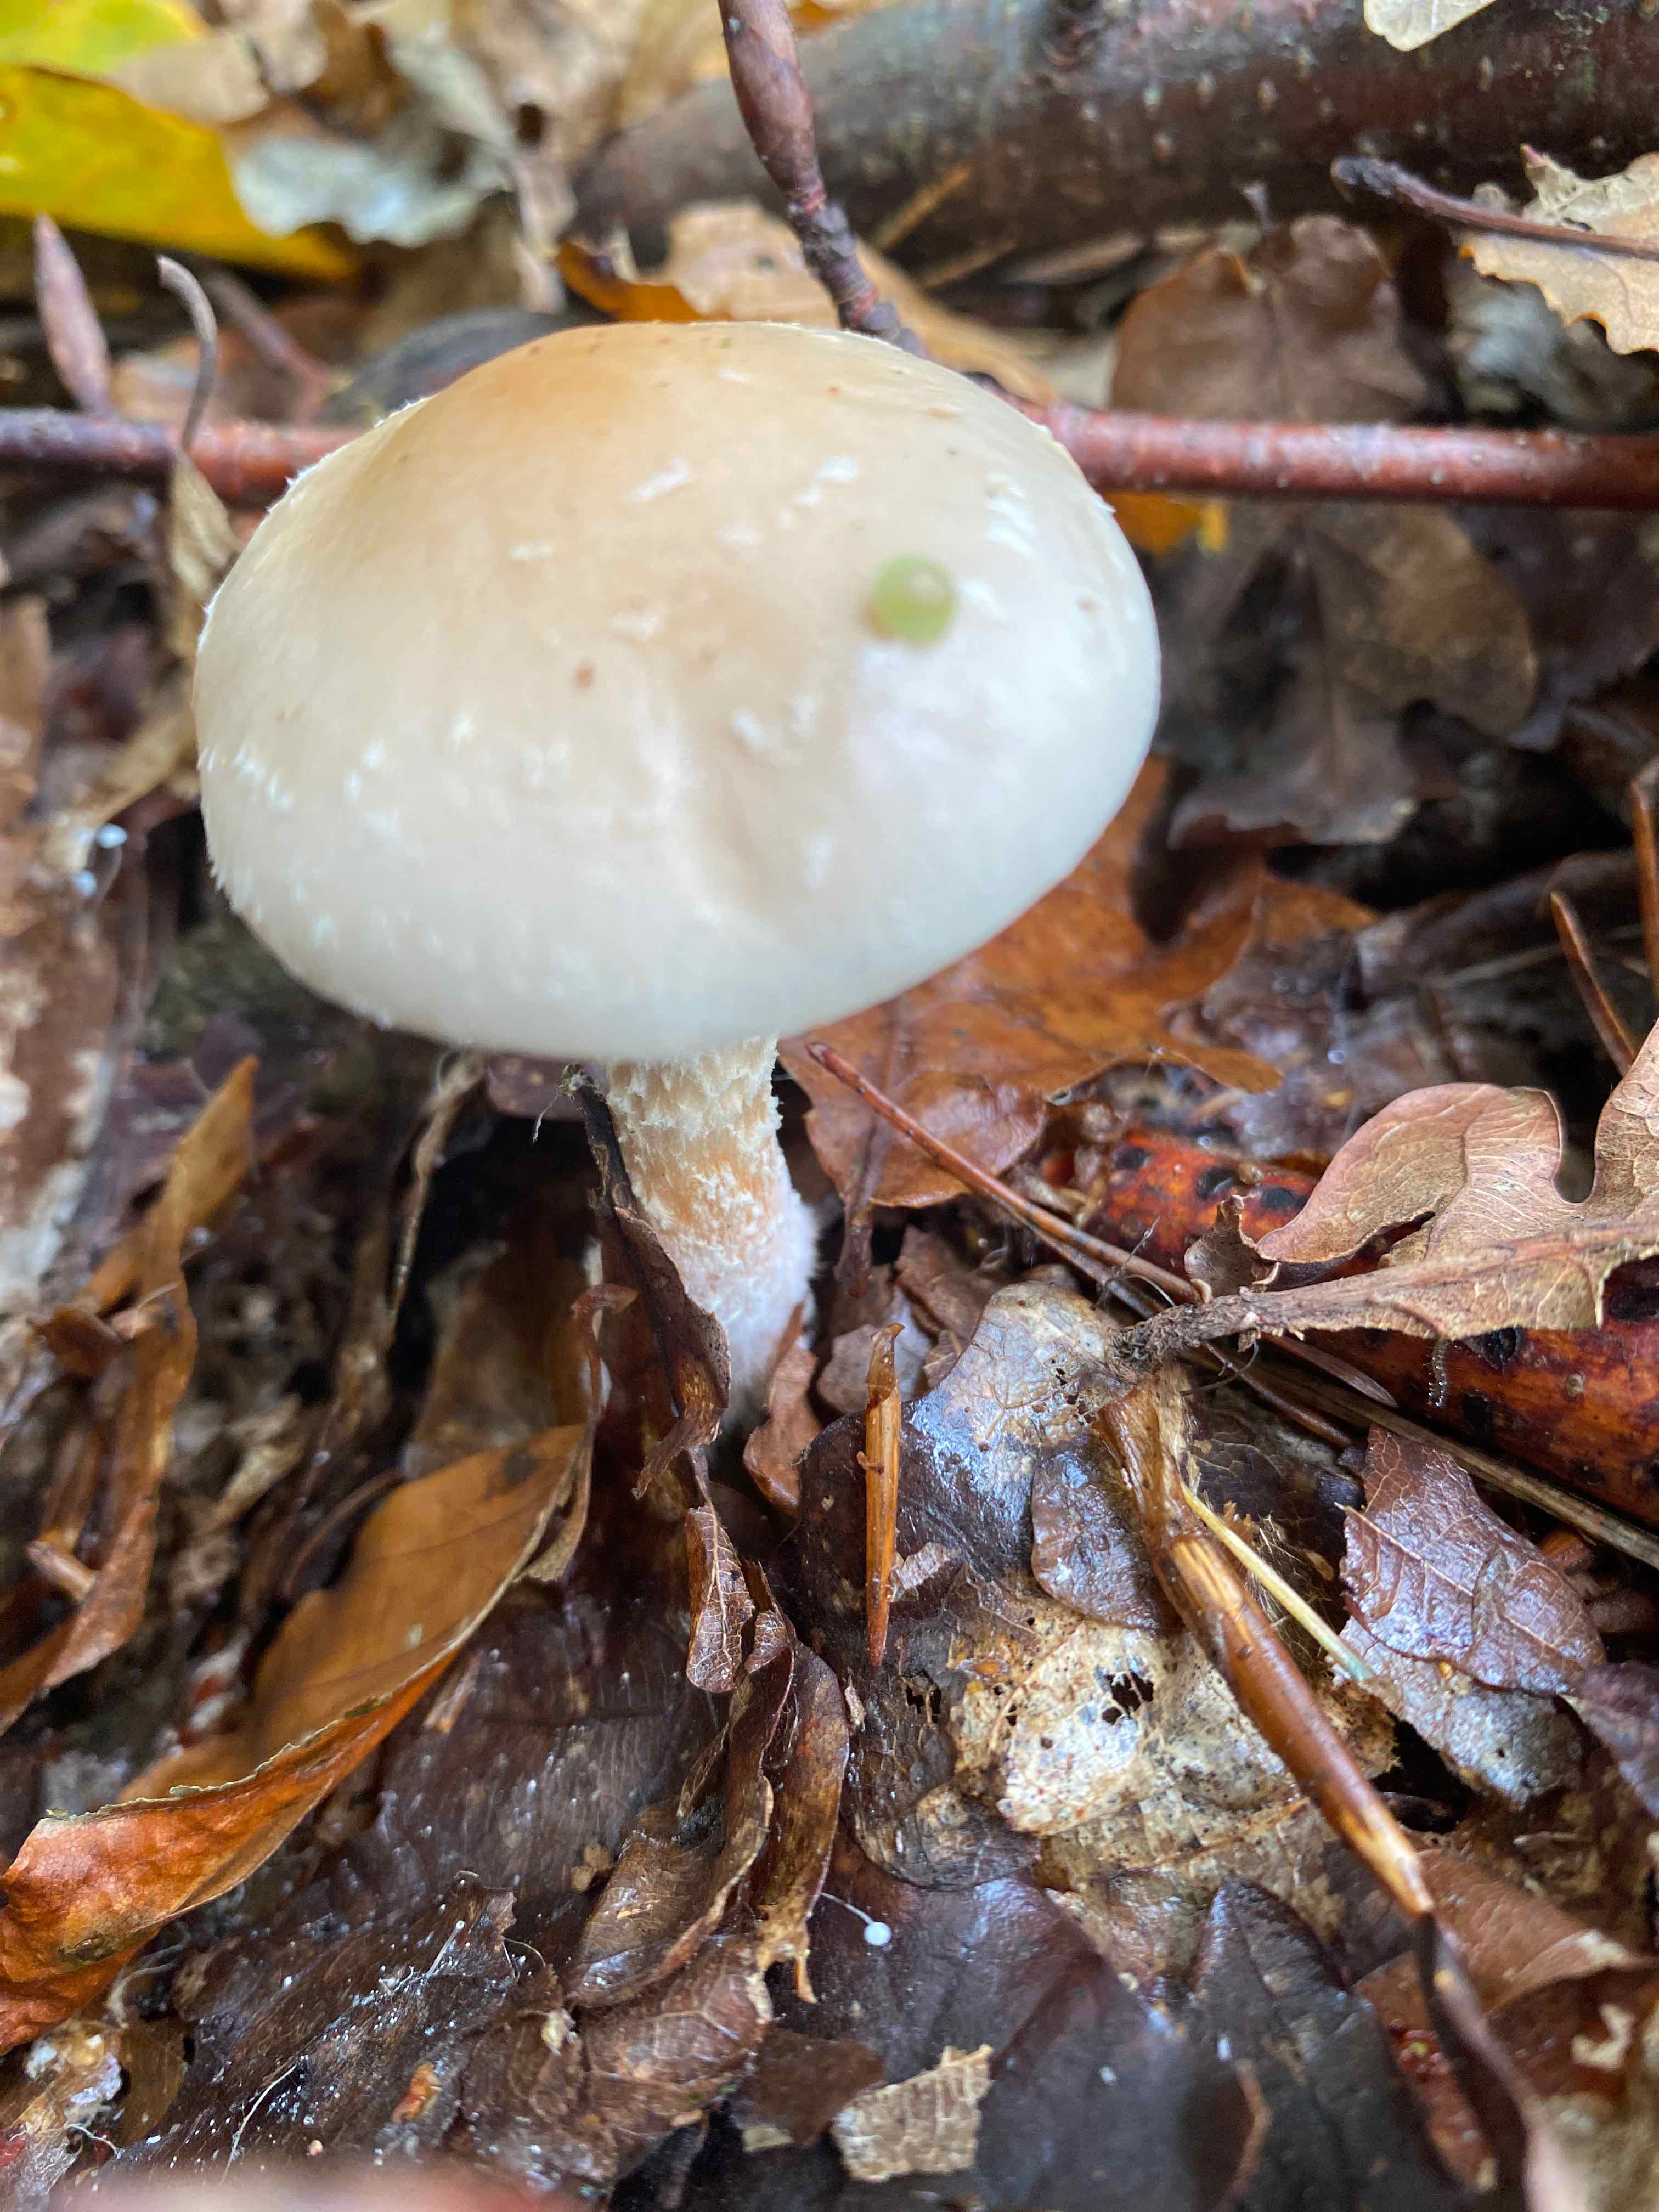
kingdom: Fungi
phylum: Basidiomycota
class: Agaricomycetes
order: Agaricales
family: Strophariaceae
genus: Pholiota
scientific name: Pholiota lenta
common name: løv-skælhat
